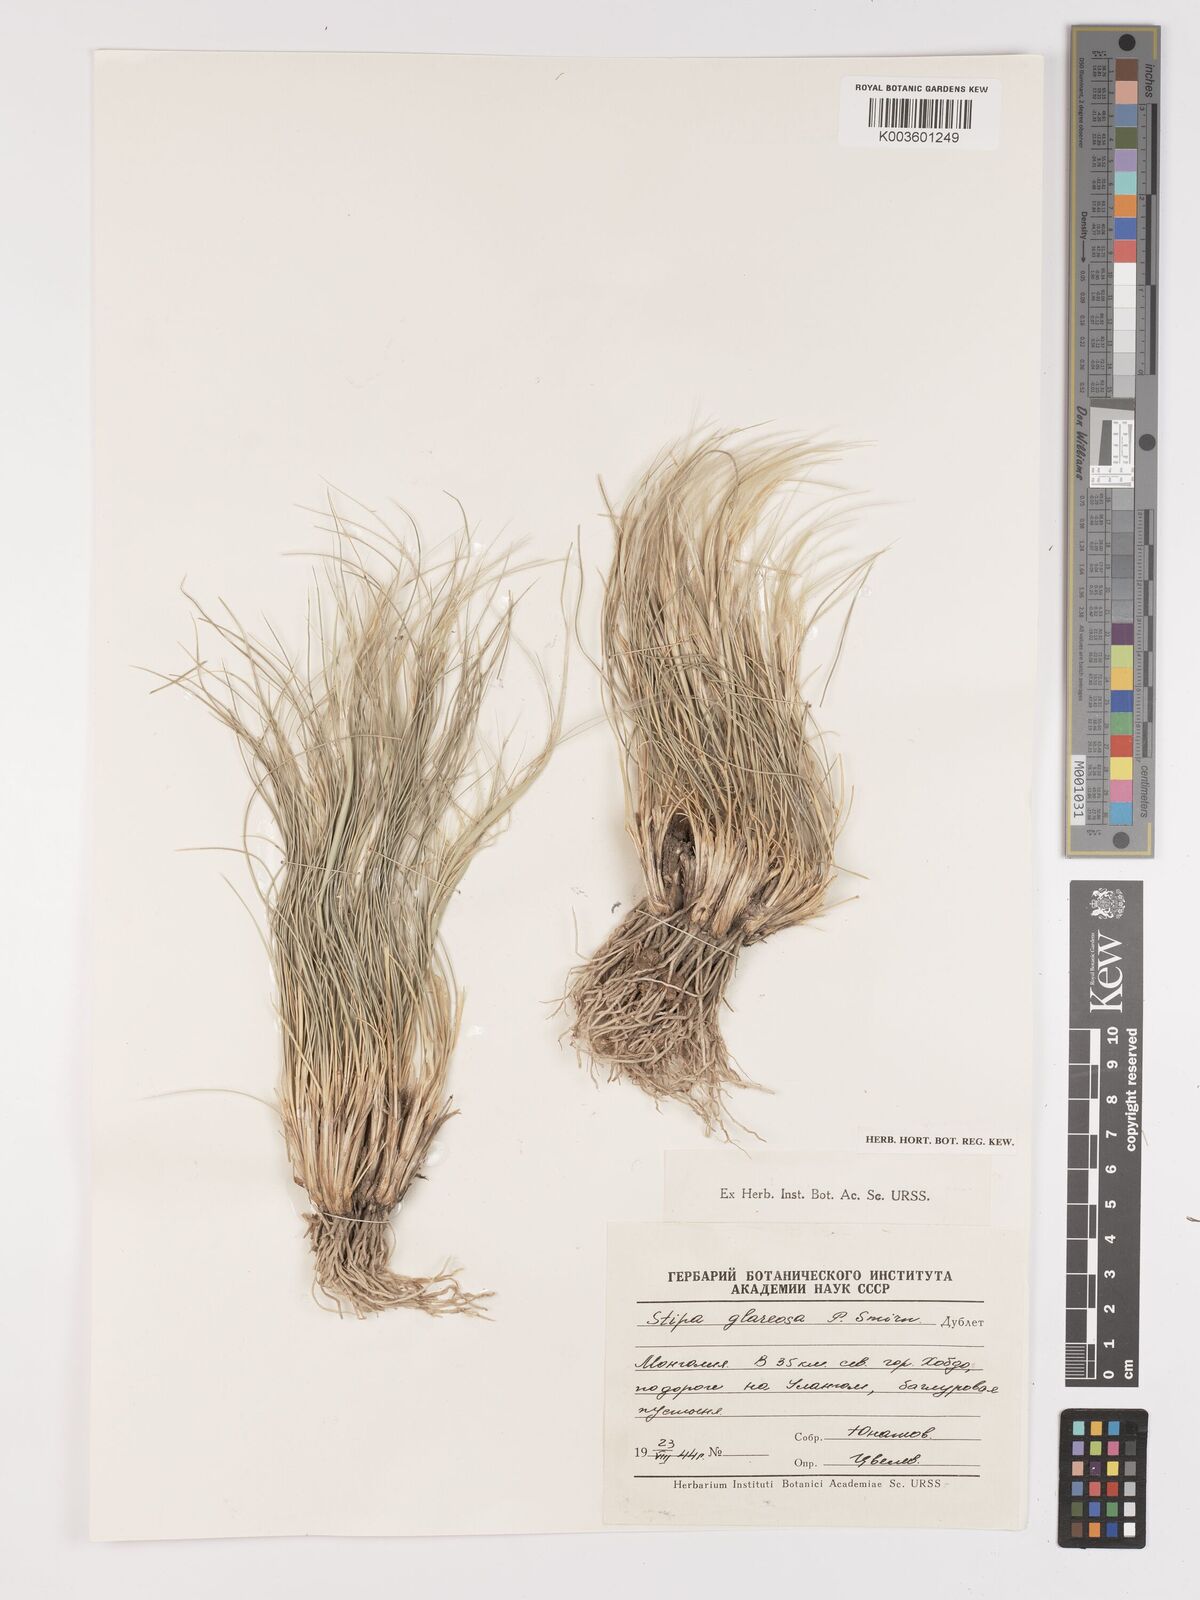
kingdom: Plantae
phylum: Tracheophyta
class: Liliopsida
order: Poales
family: Poaceae
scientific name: Poaceae
